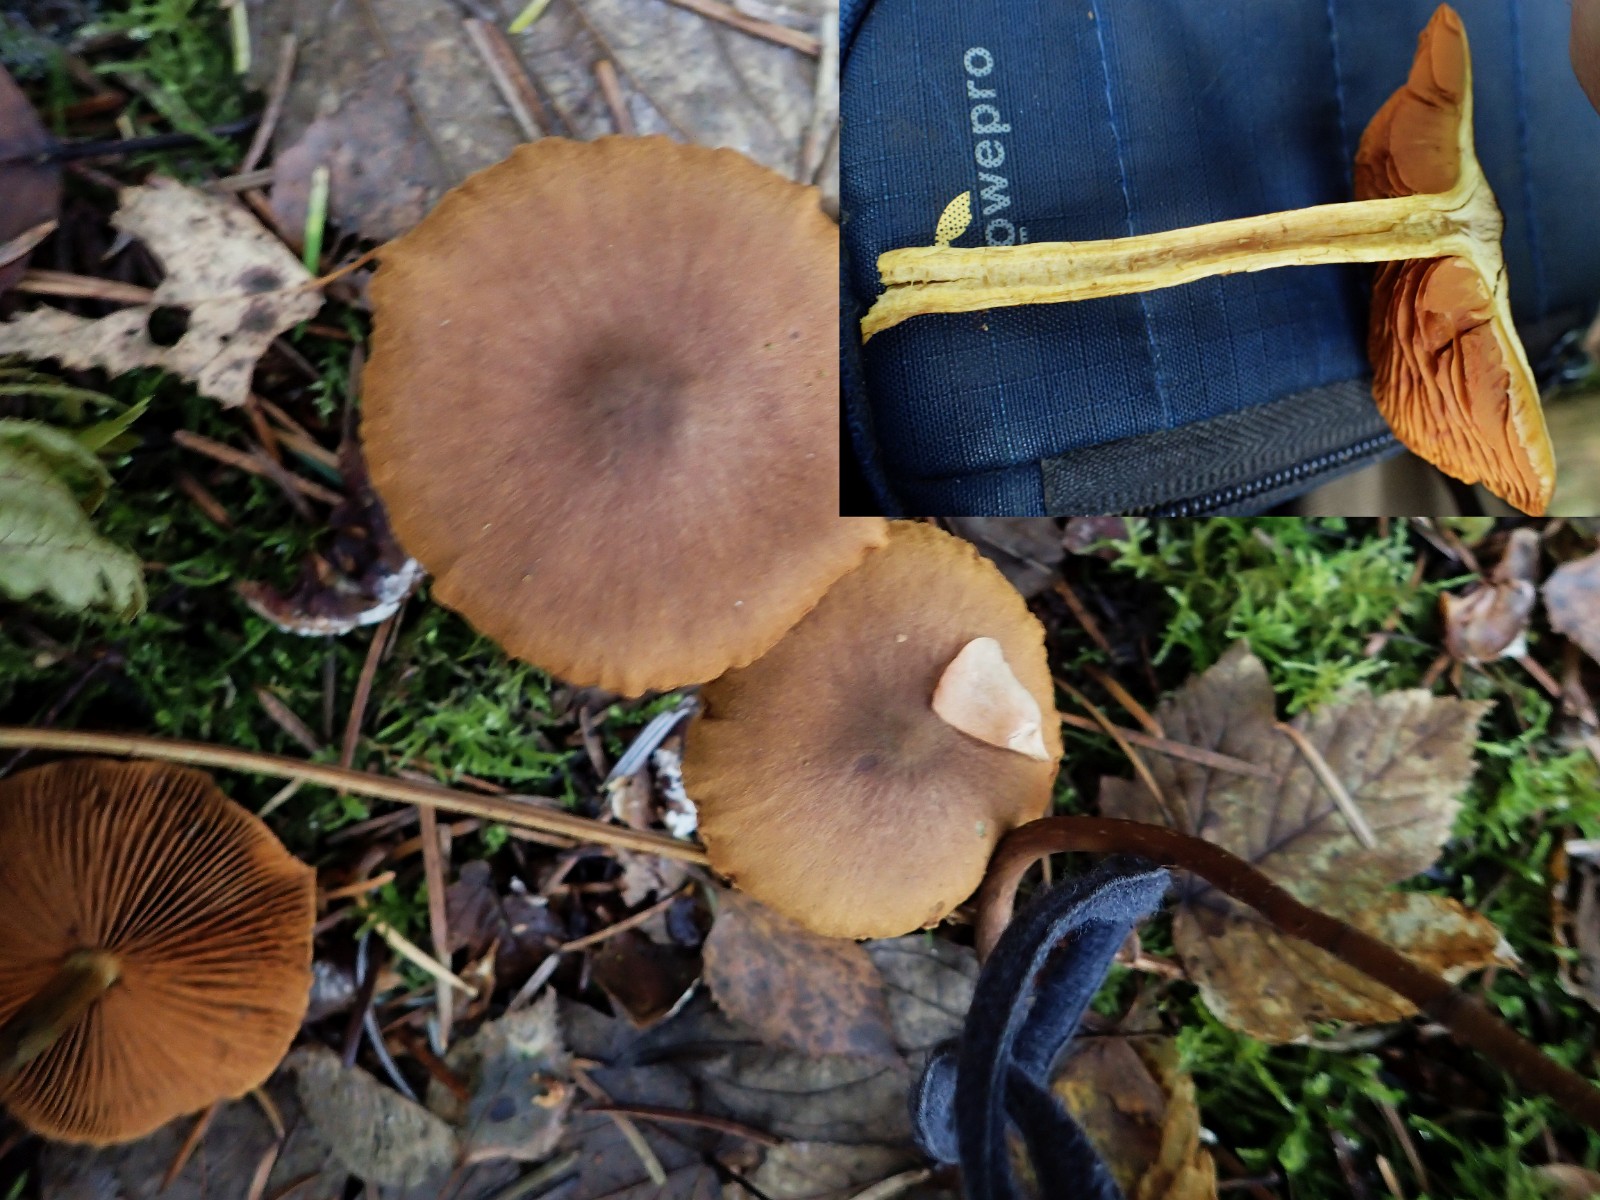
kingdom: Fungi
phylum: Basidiomycota
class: Agaricomycetes
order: Agaricales
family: Cortinariaceae
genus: Cortinarius
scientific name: Cortinarius
